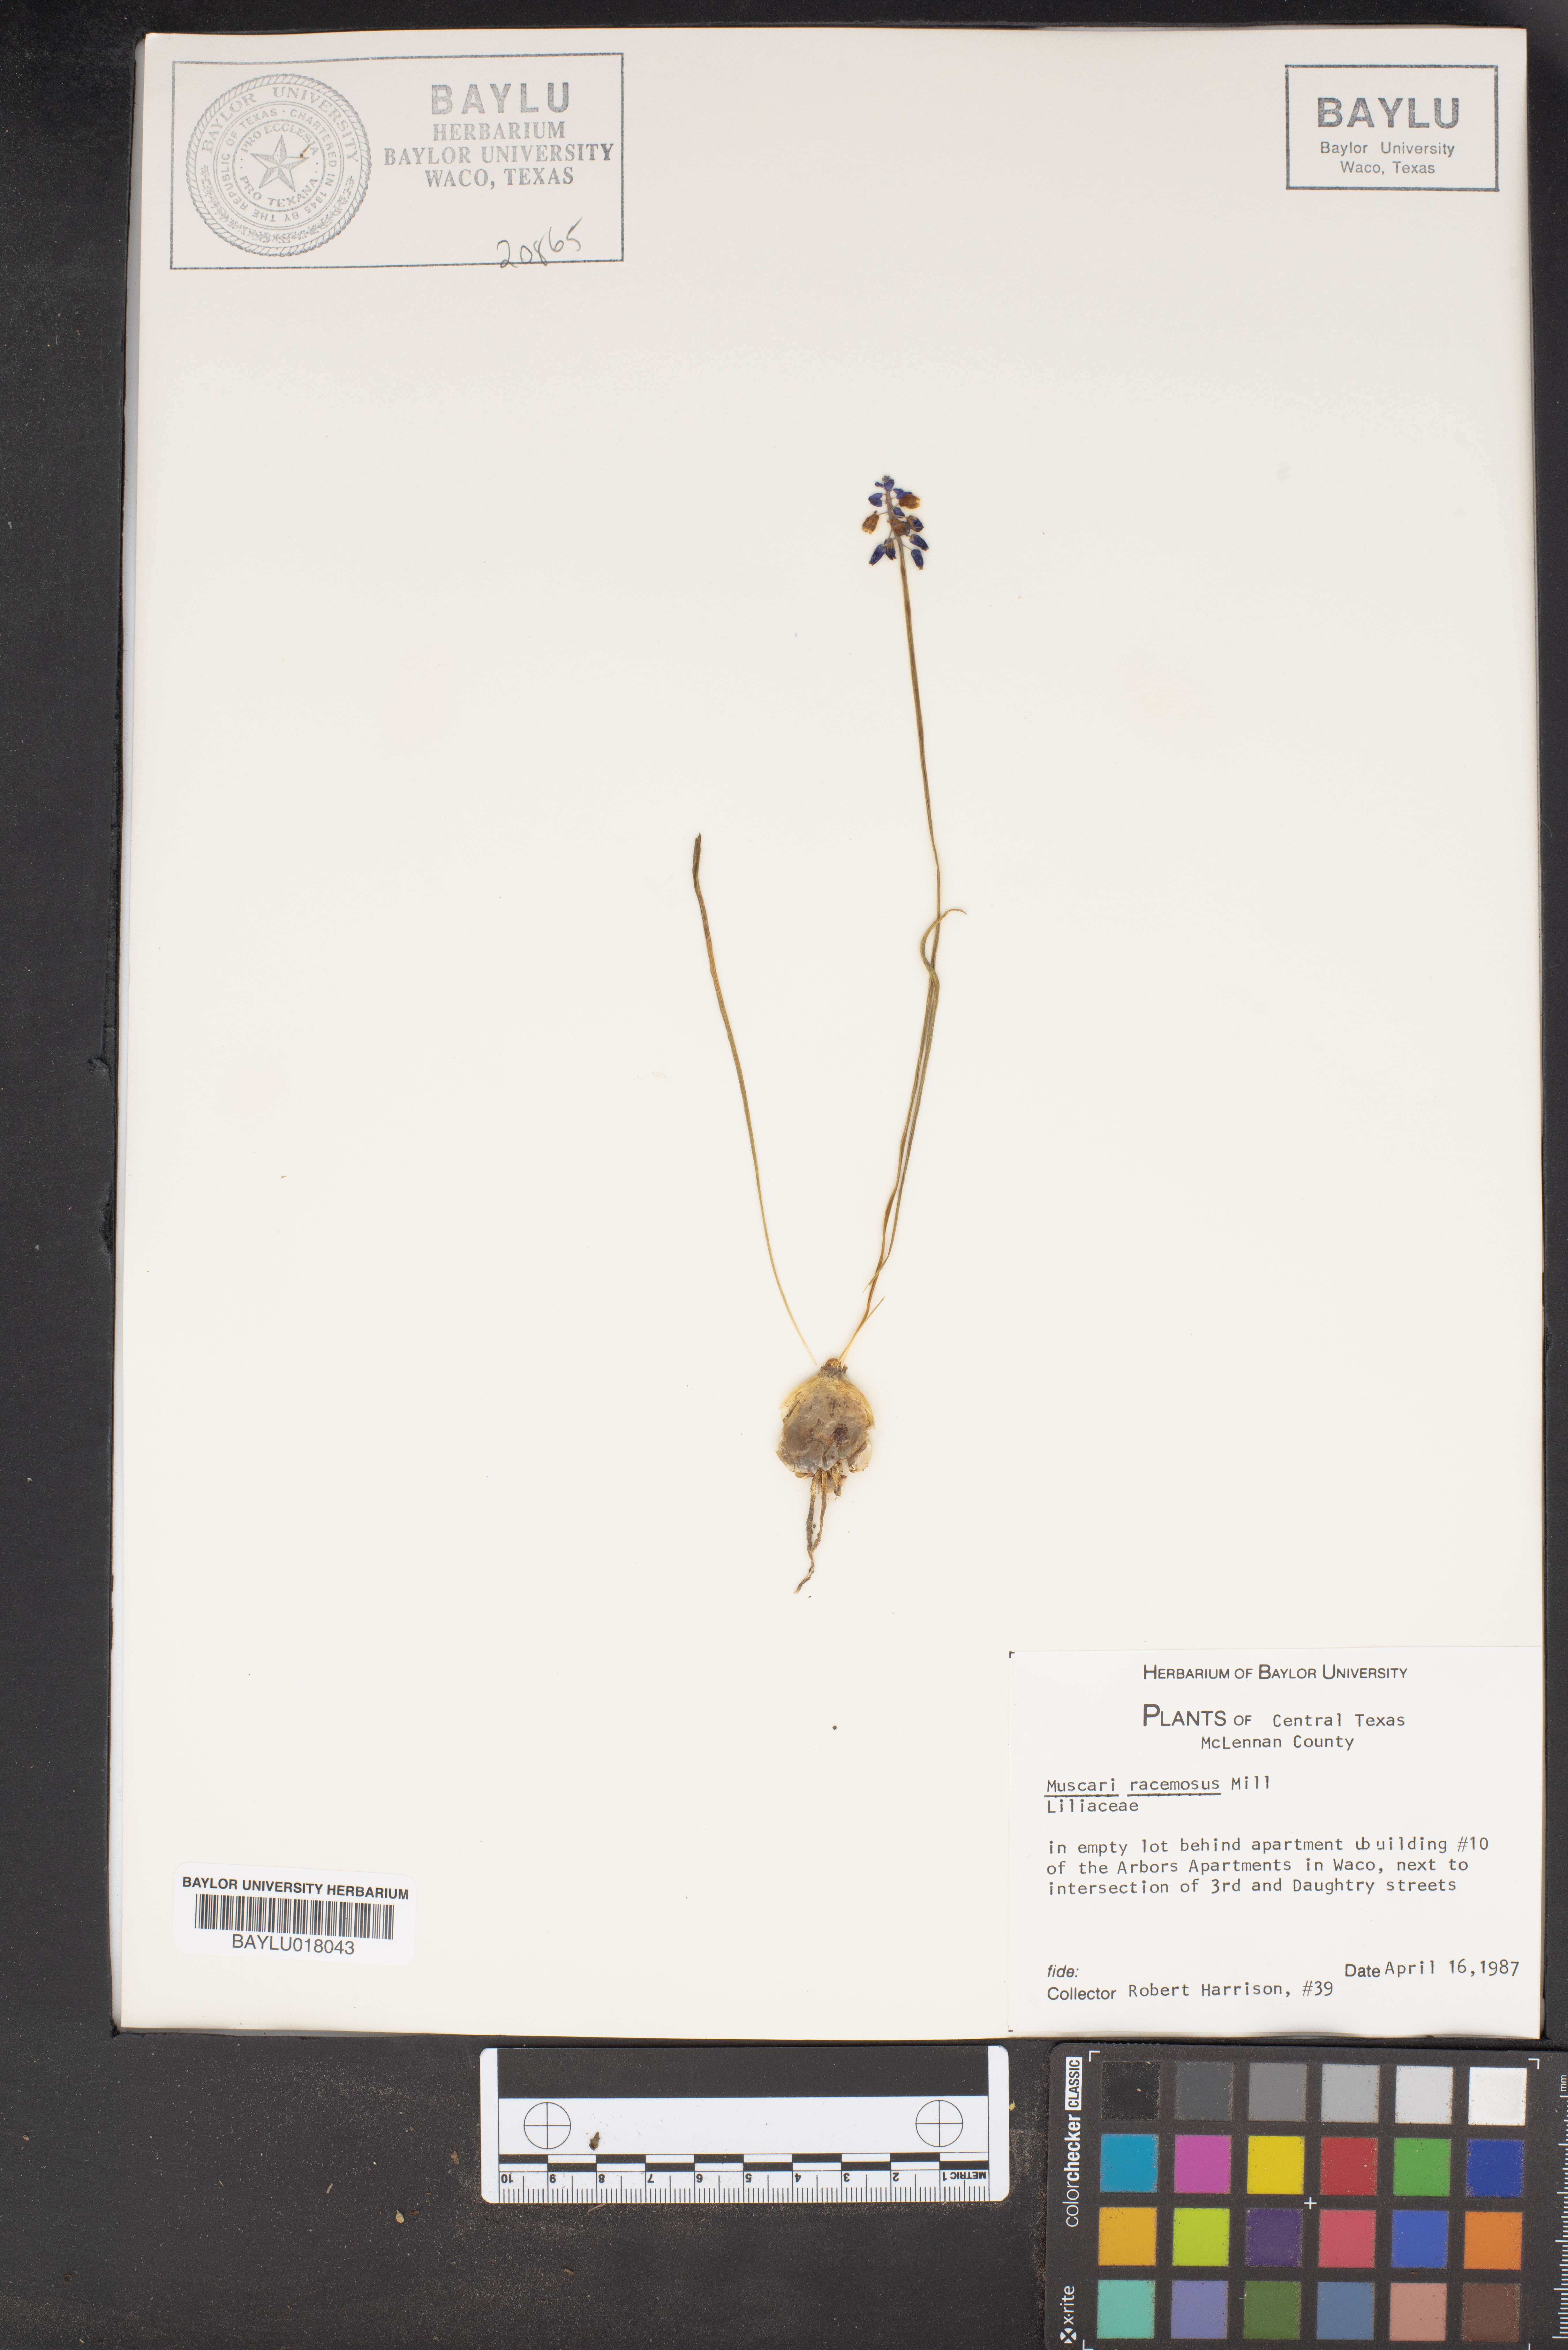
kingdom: Plantae
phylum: Tracheophyta
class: Liliopsida
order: Asparagales
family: Asparagaceae
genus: Muscarimia
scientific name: Muscarimia muscari
